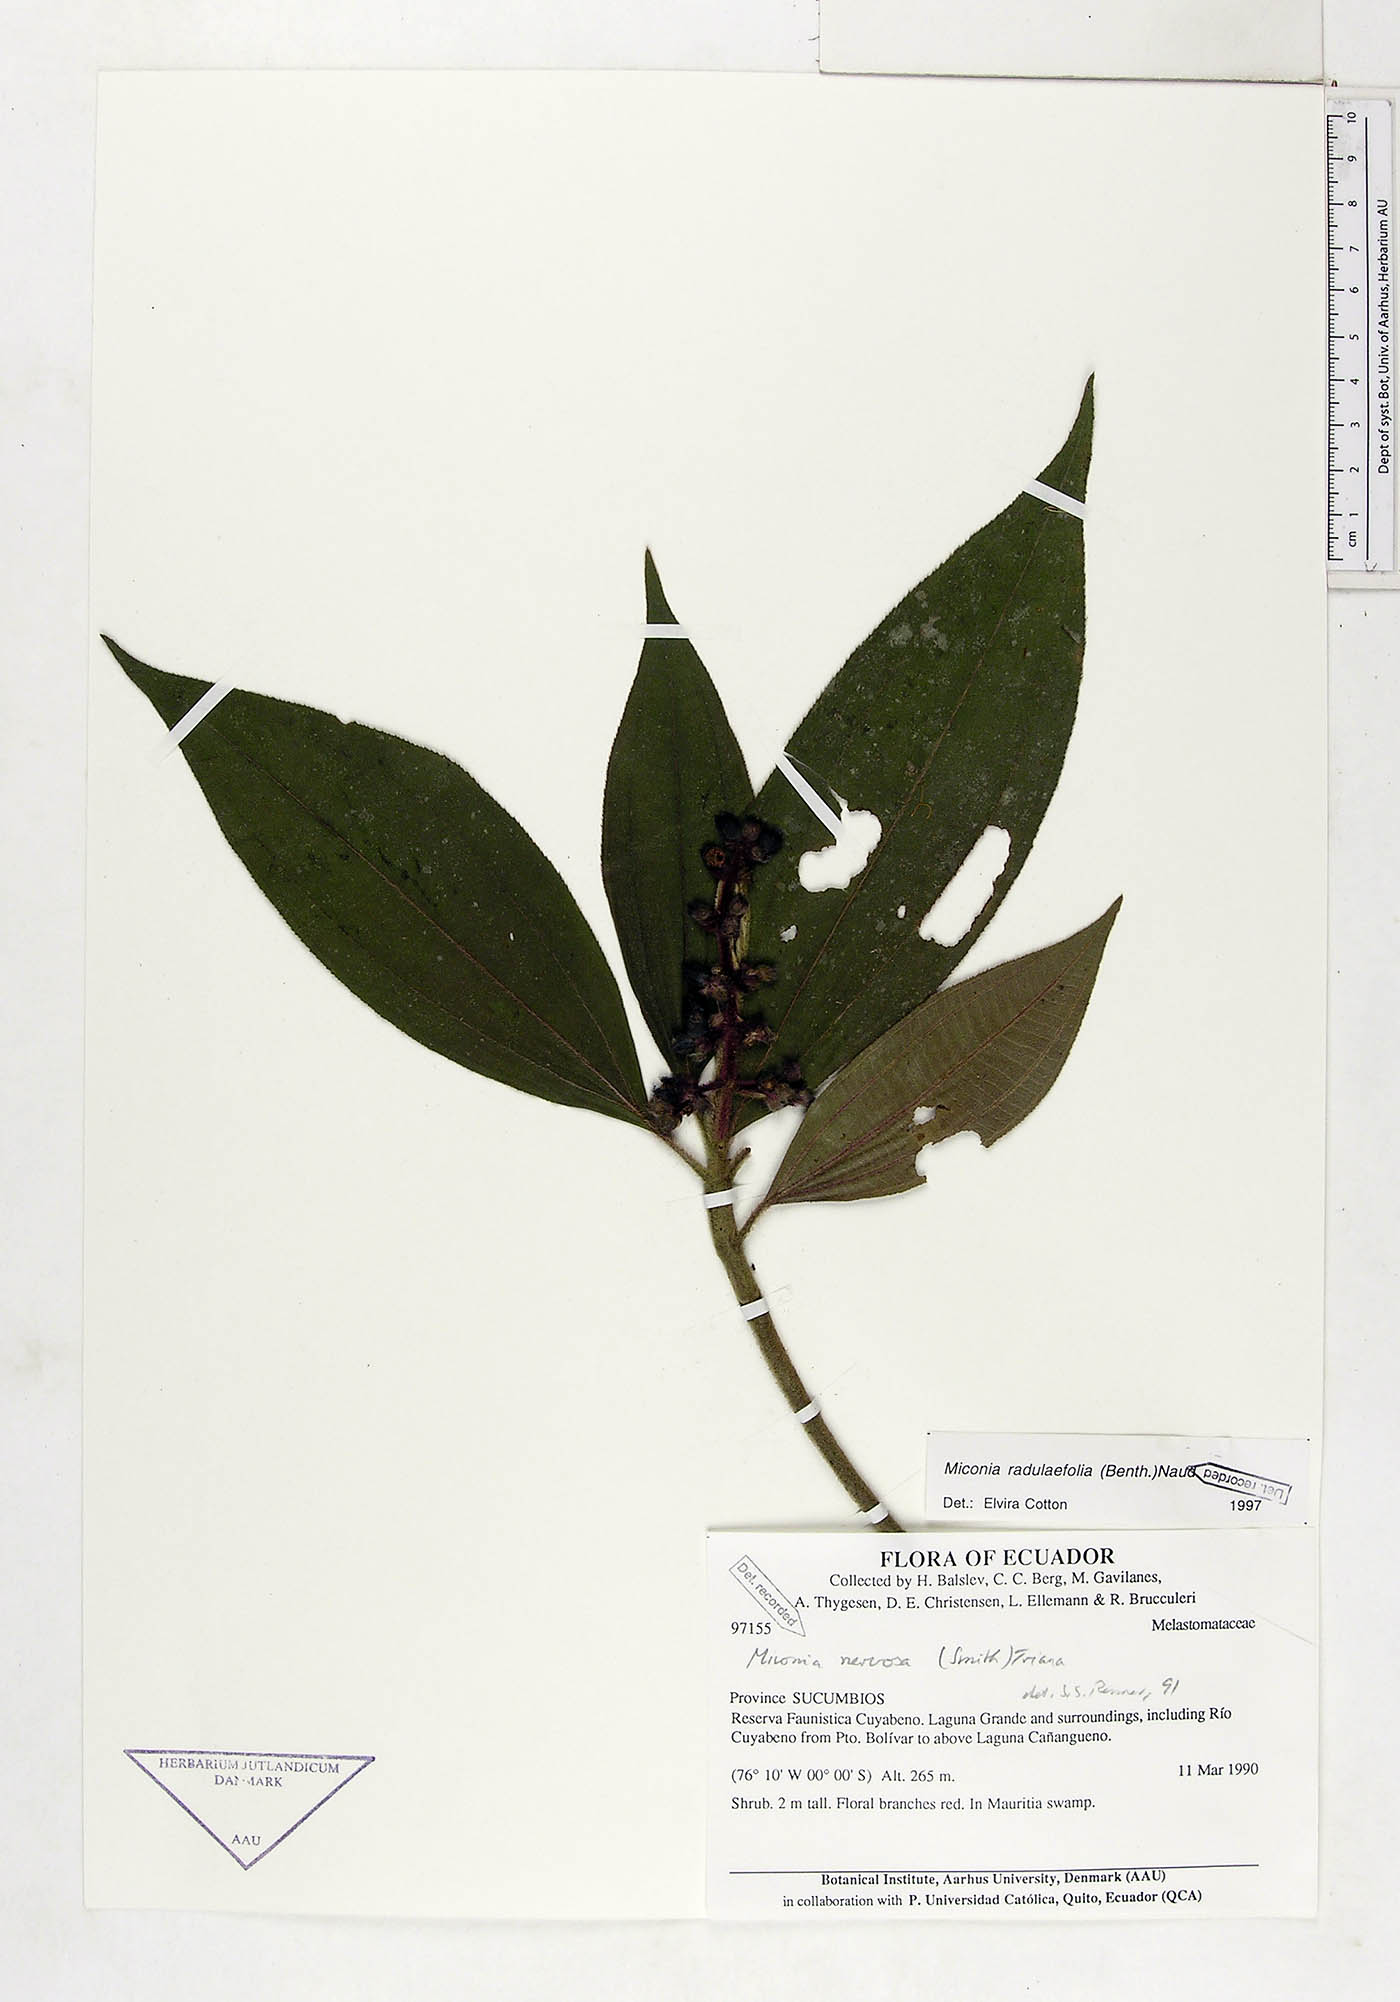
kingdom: Plantae
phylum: Tracheophyta
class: Magnoliopsida
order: Myrtales
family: Melastomataceae
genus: Miconia
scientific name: Miconia radulifolia
